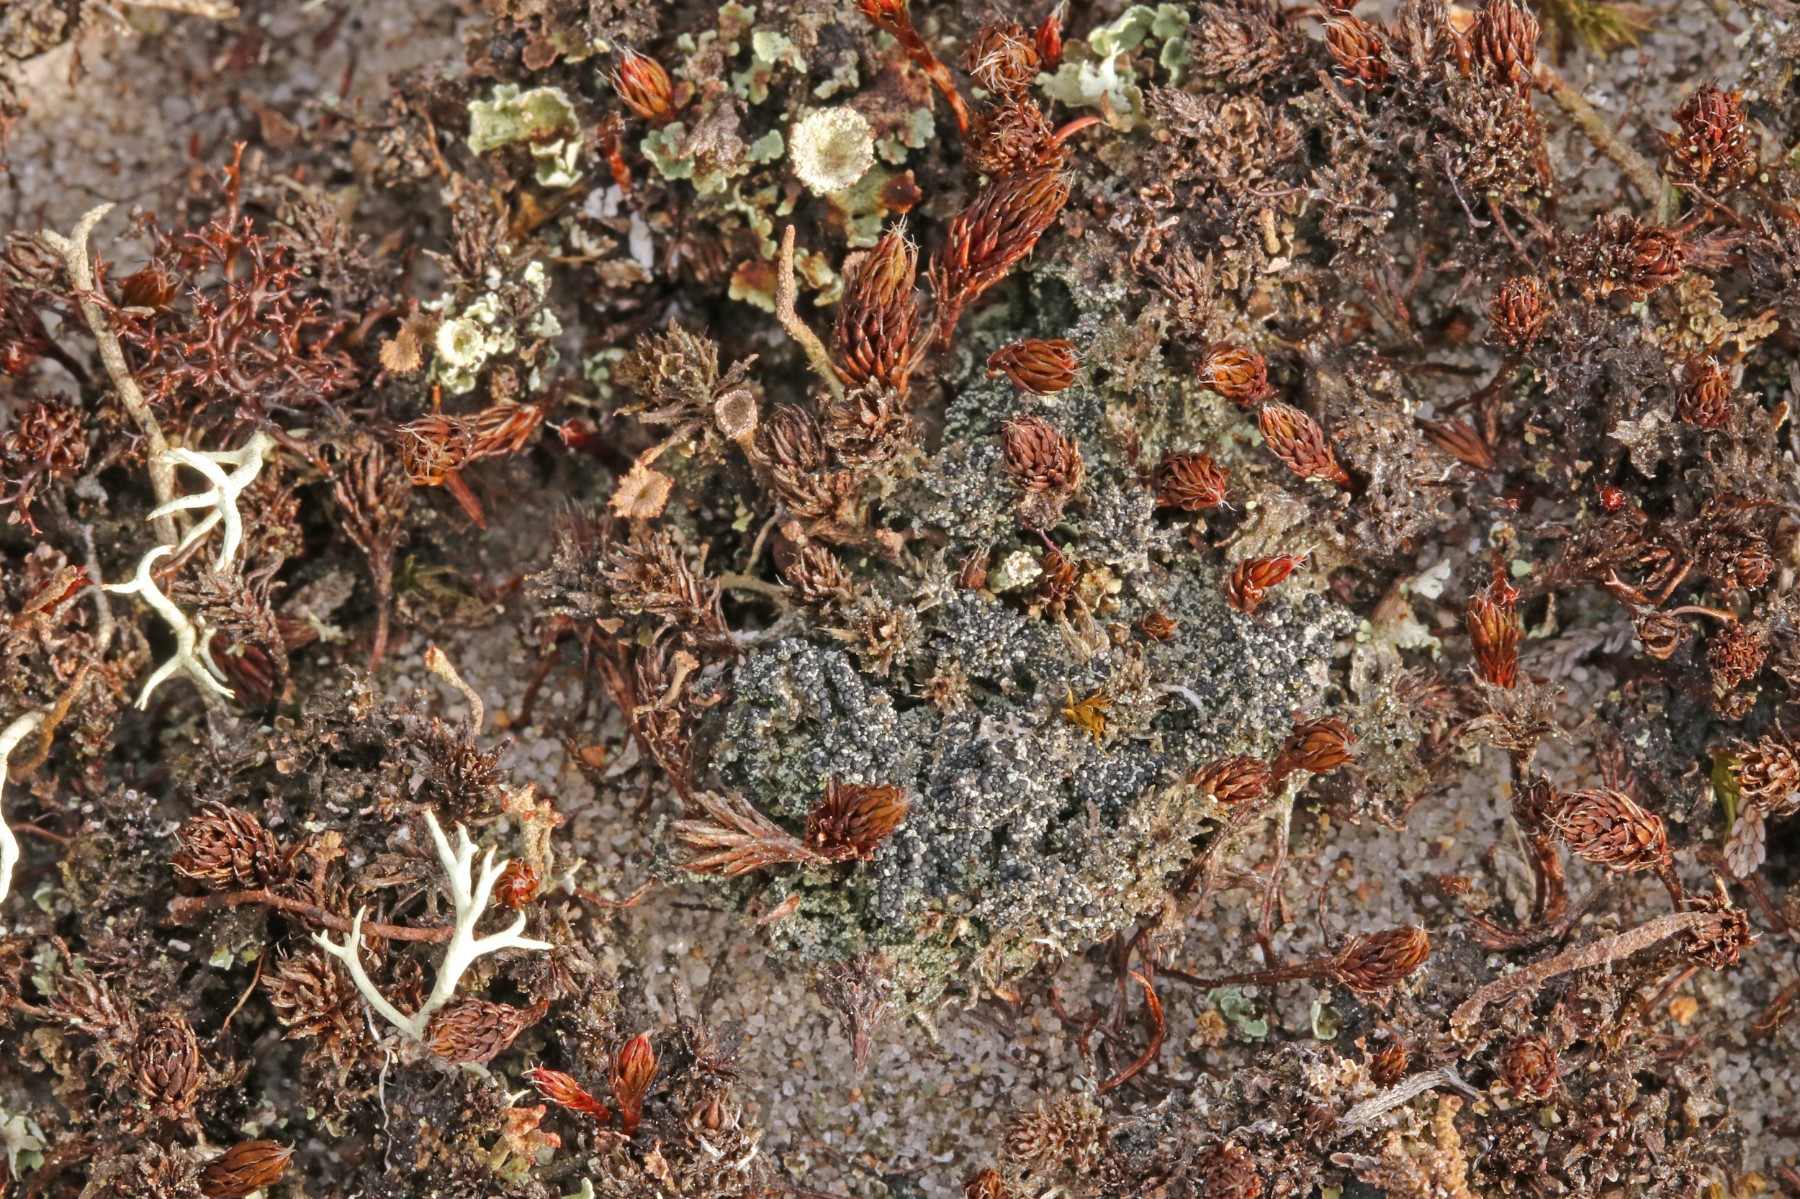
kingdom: Fungi
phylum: Ascomycota
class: Lecanoromycetes
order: Lecanorales
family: Byssolomataceae
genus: Micarea
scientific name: Micarea lignaria
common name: tørve-knaplav
